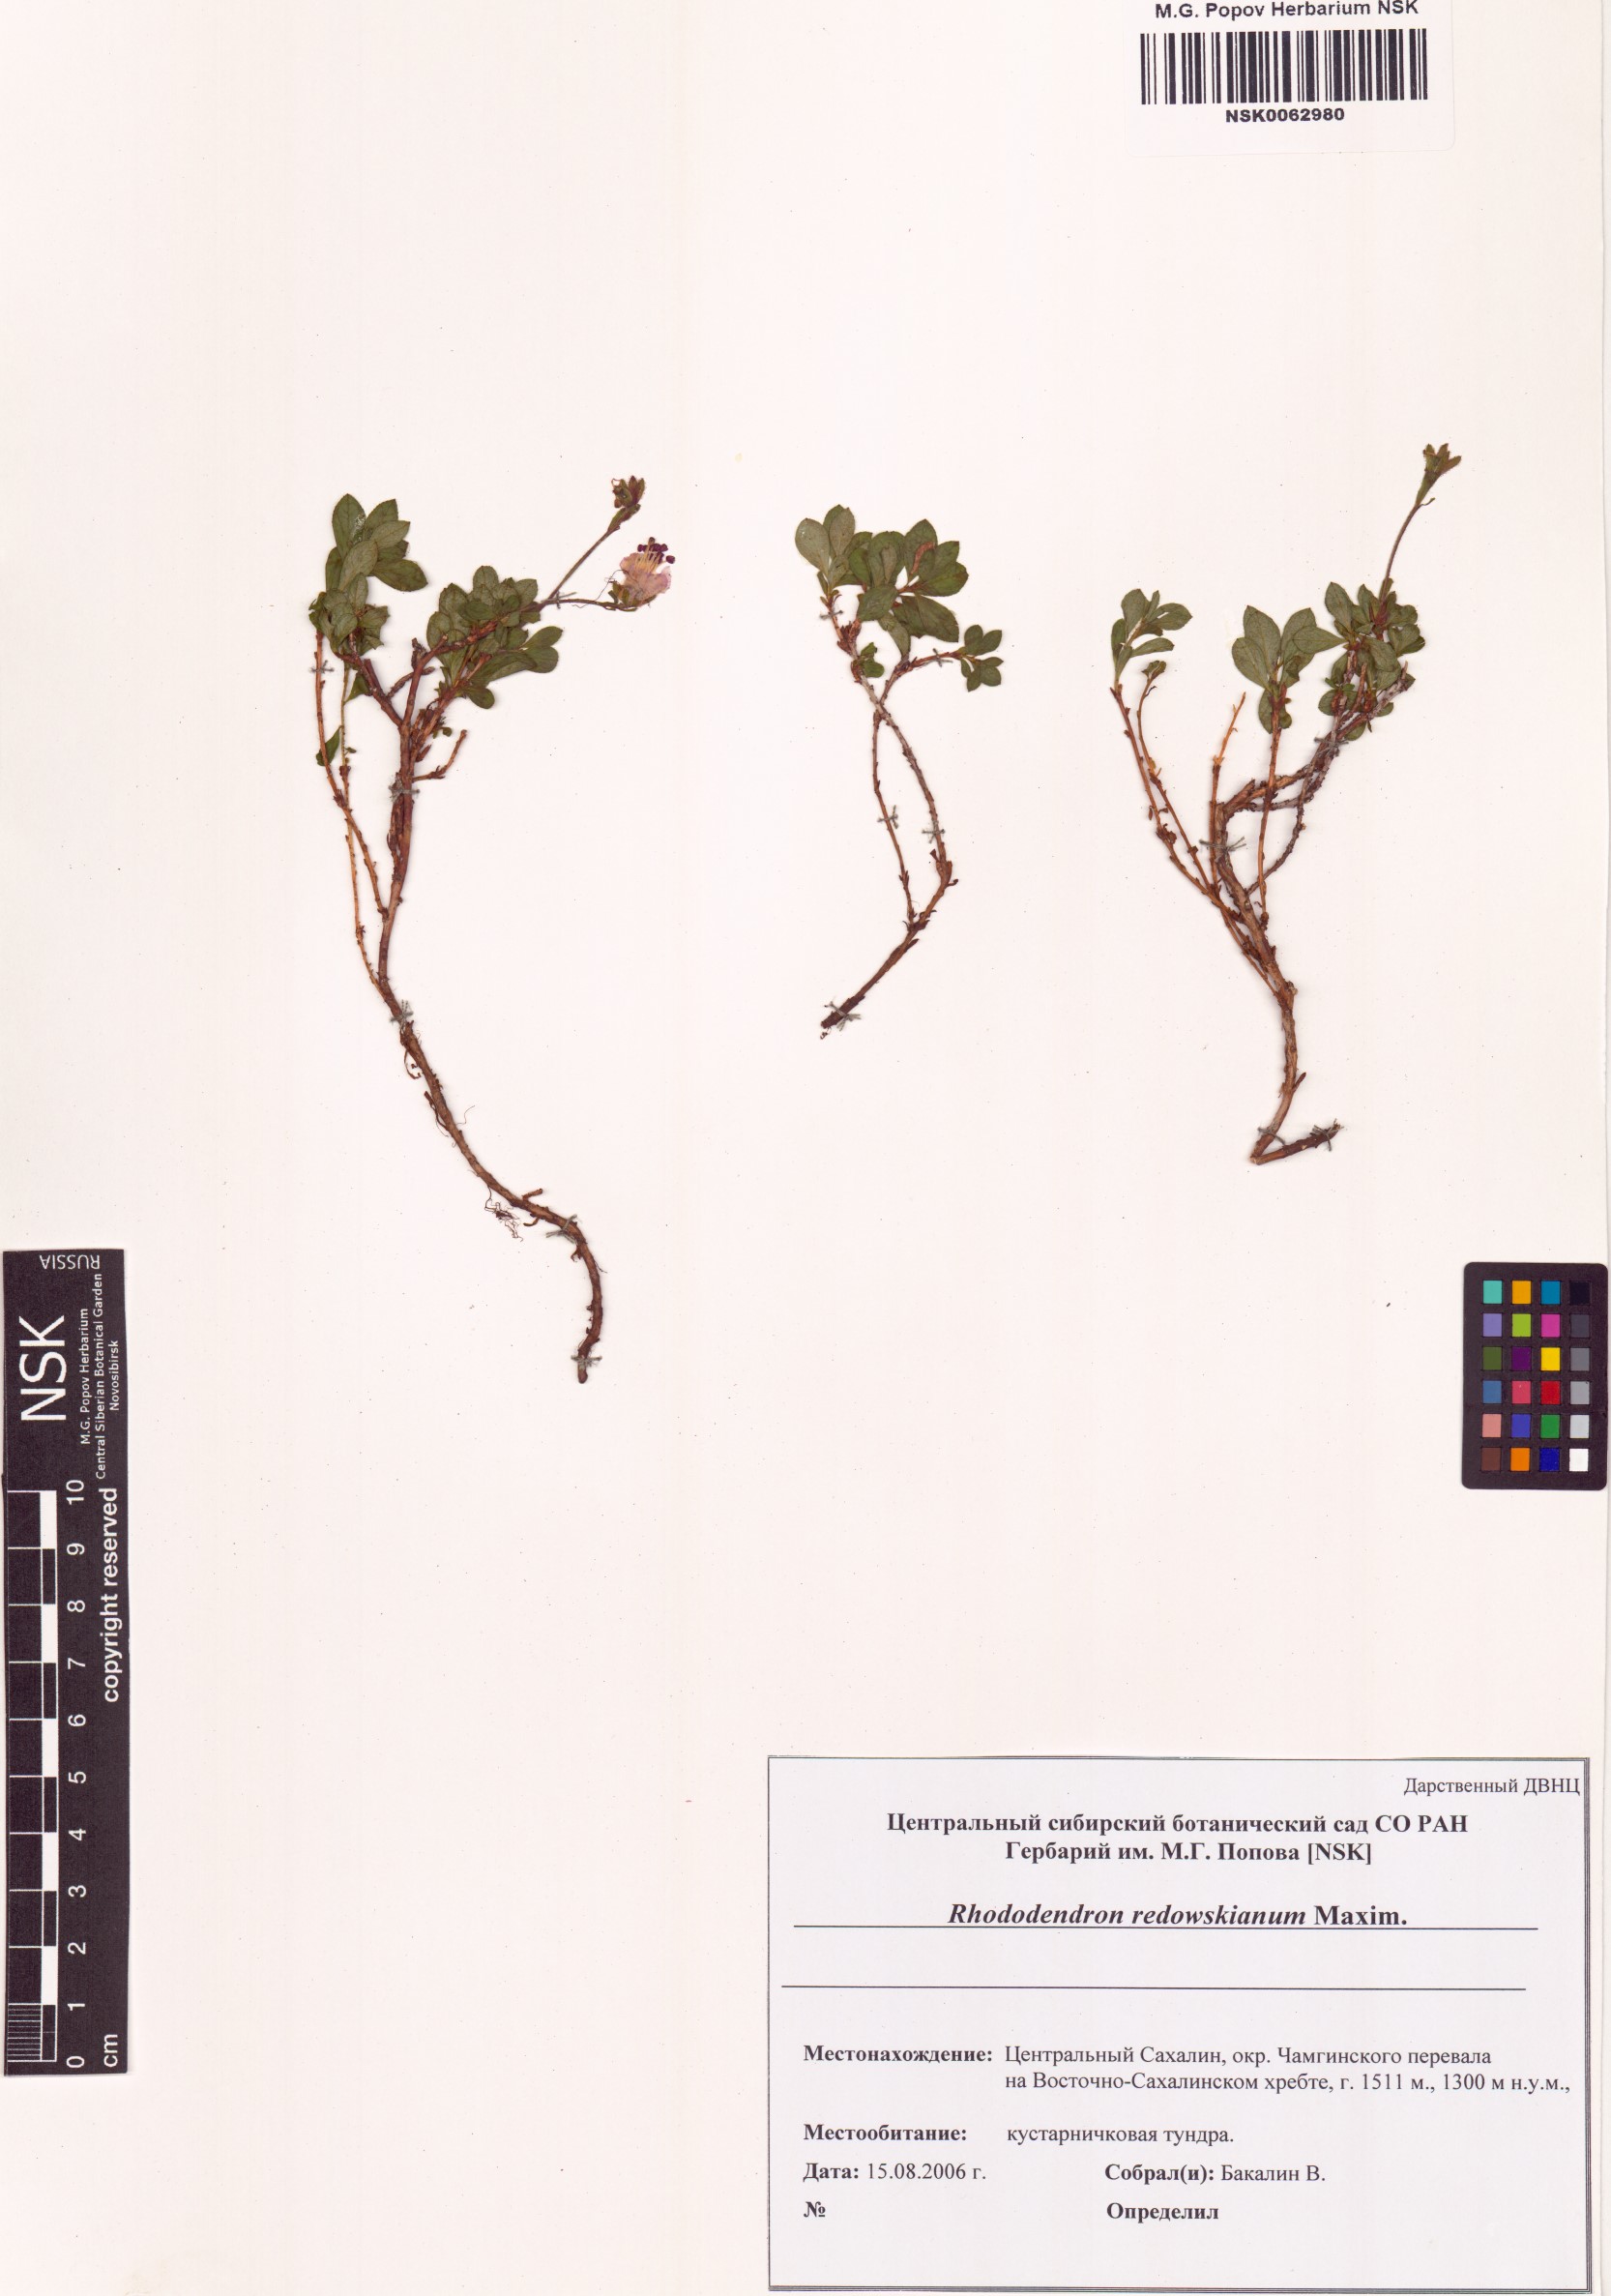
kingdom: Plantae
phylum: Tracheophyta
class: Magnoliopsida
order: Ericales
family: Ericaceae
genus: Rhododendron
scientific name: Rhododendron redowskianum
